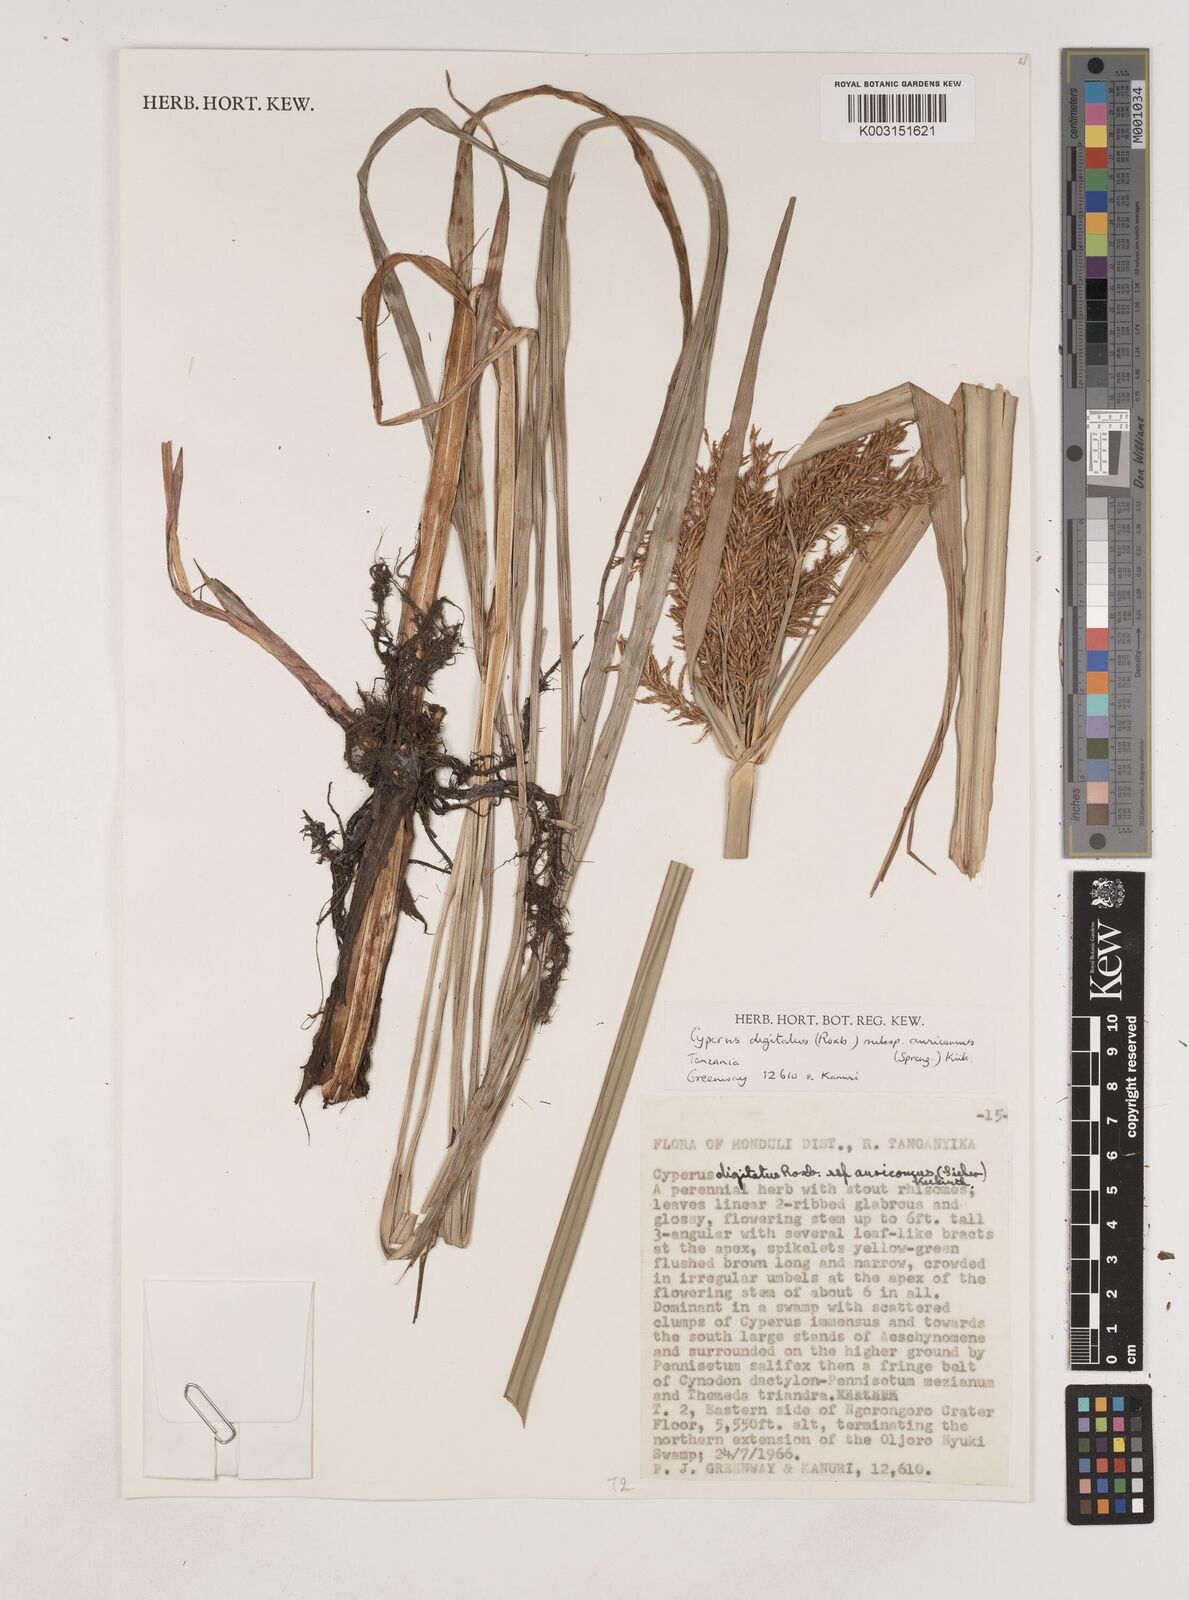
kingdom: Plantae
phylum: Tracheophyta
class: Liliopsida
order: Poales
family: Cyperaceae
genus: Cyperus
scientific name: Cyperus digitatus
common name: Finger flatsedge
